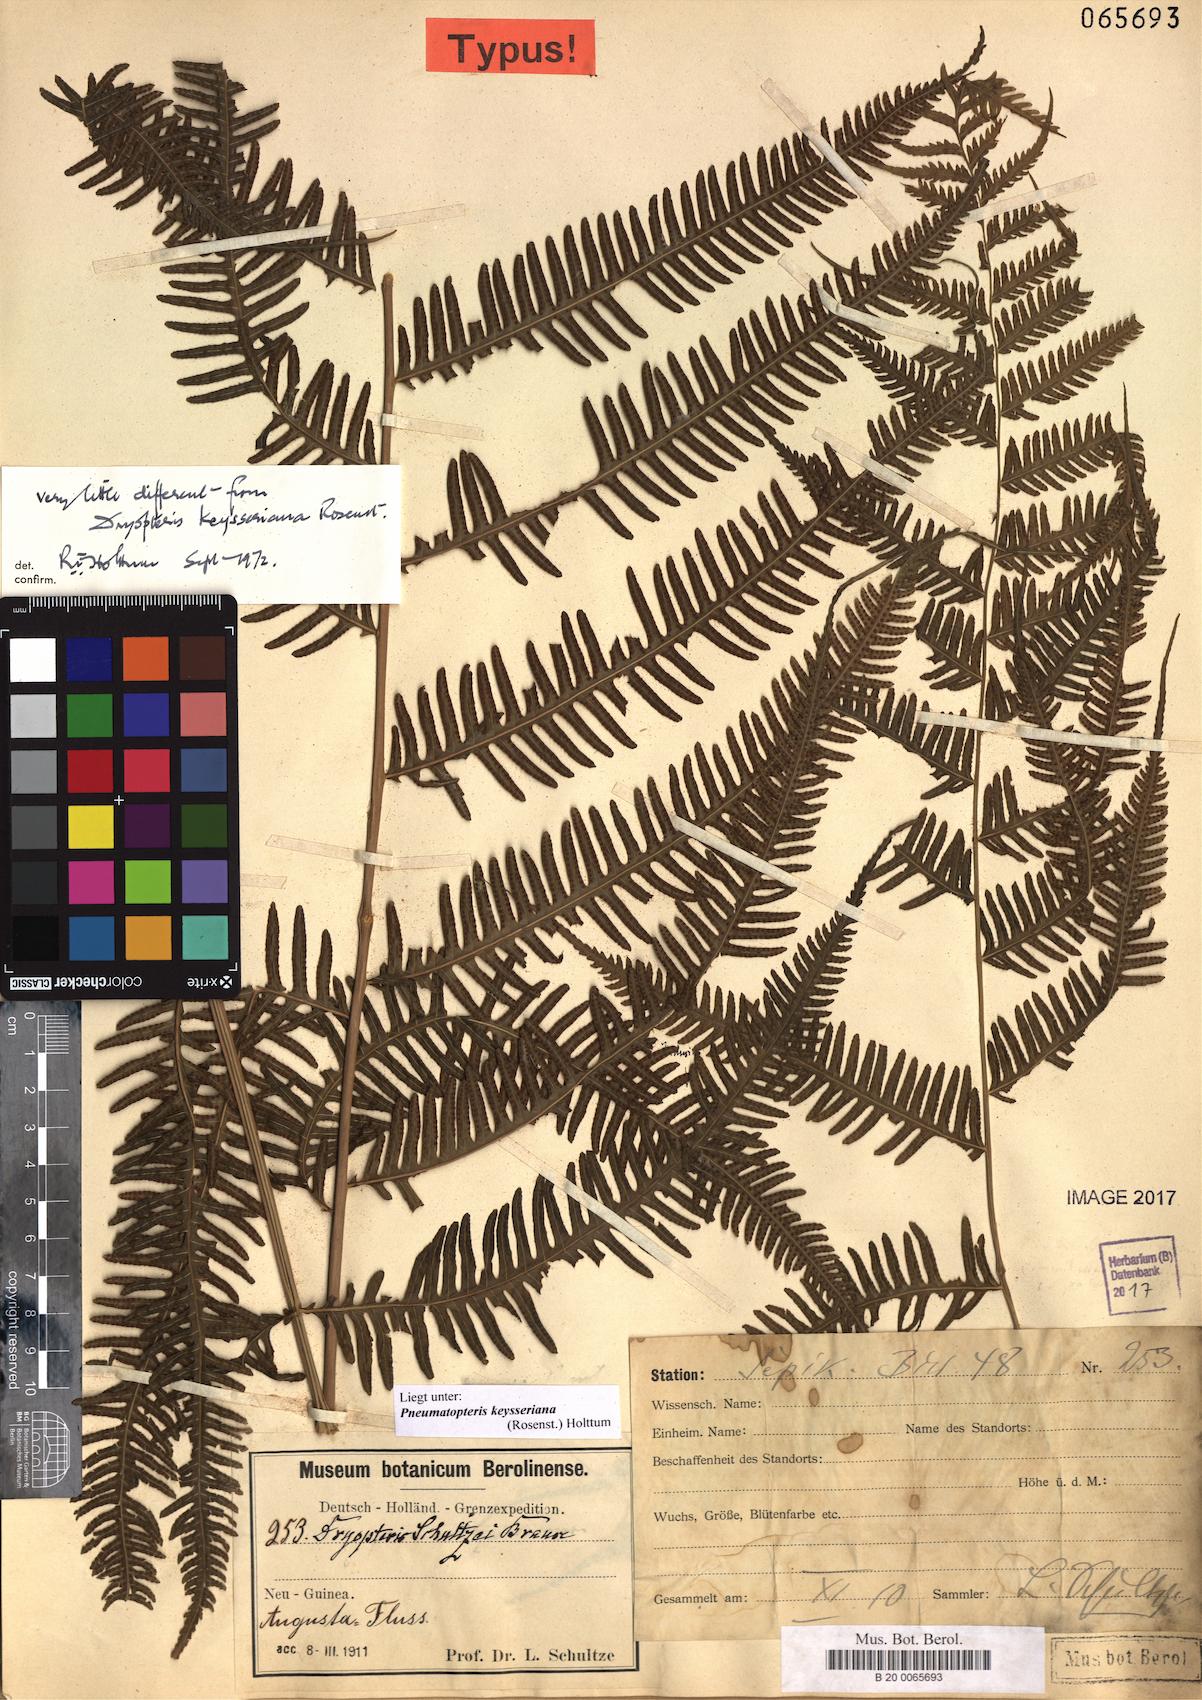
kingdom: Plantae
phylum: Tracheophyta
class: Polypodiopsida
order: Polypodiales
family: Thelypteridaceae
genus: Plesioneuron
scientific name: Plesioneuron keysserianum
